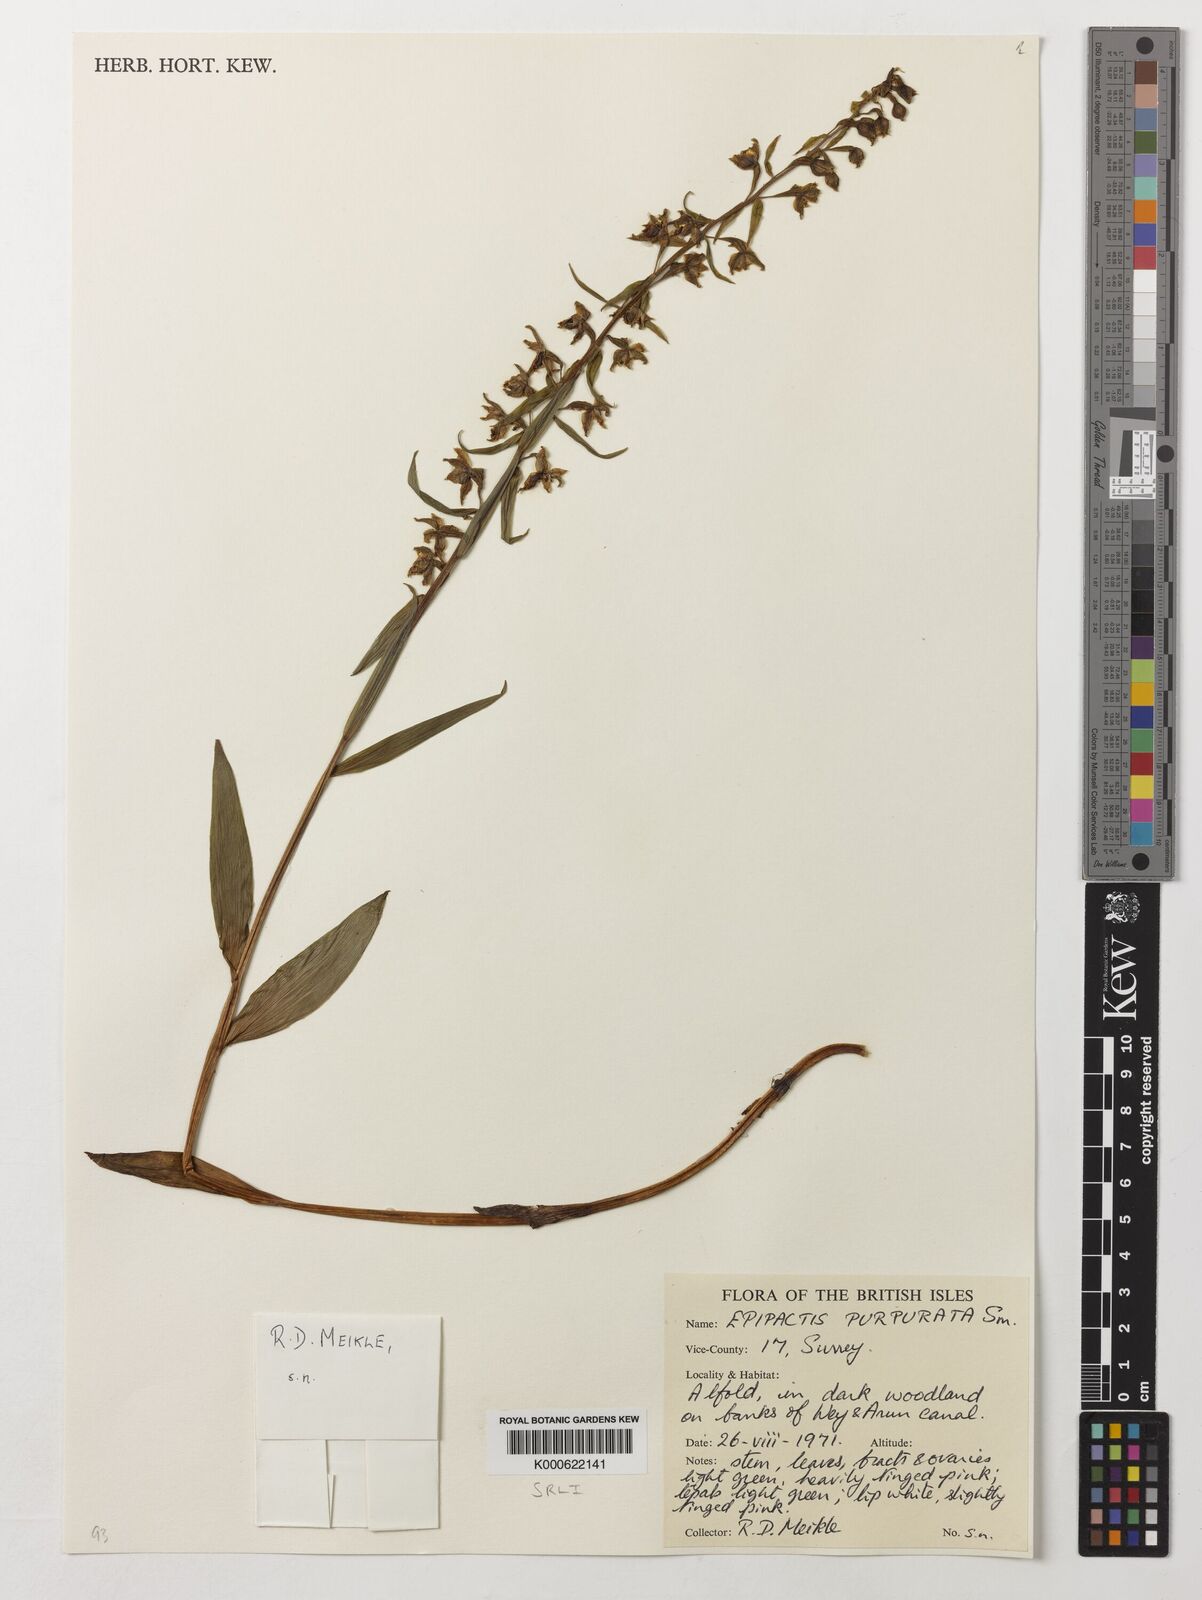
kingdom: Plantae
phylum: Tracheophyta
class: Liliopsida
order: Asparagales
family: Orchidaceae
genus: Epipactis
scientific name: Epipactis purpurata
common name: Violet helleborine
